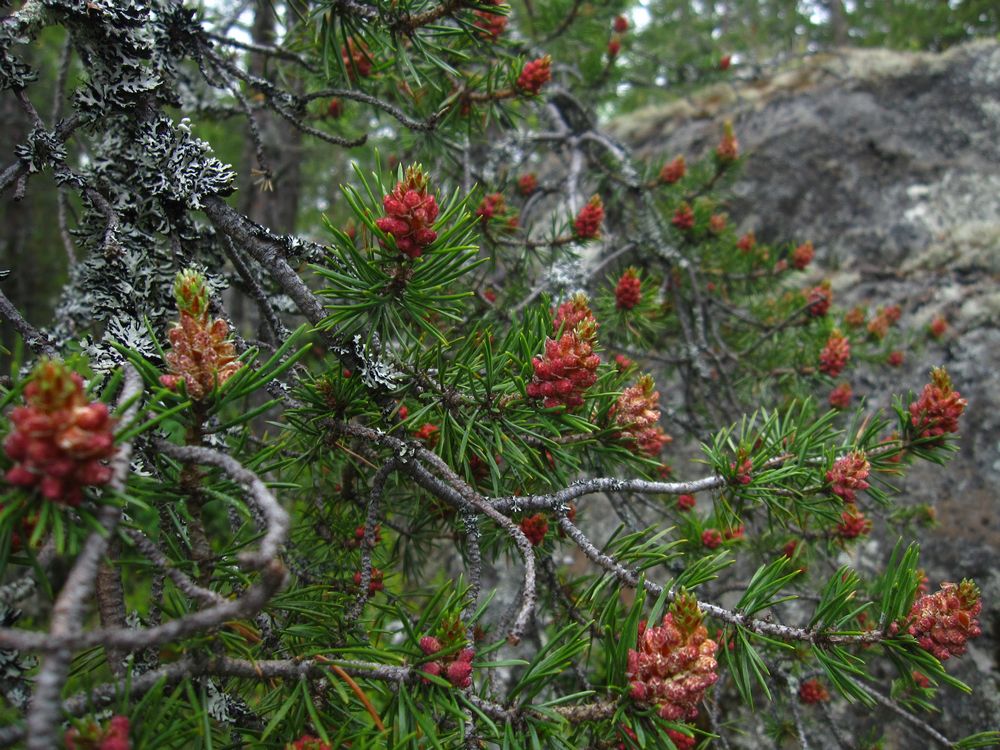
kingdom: Plantae
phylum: Tracheophyta
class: Pinopsida
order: Pinales
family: Pinaceae
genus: Pinus
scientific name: Pinus sylvestris
